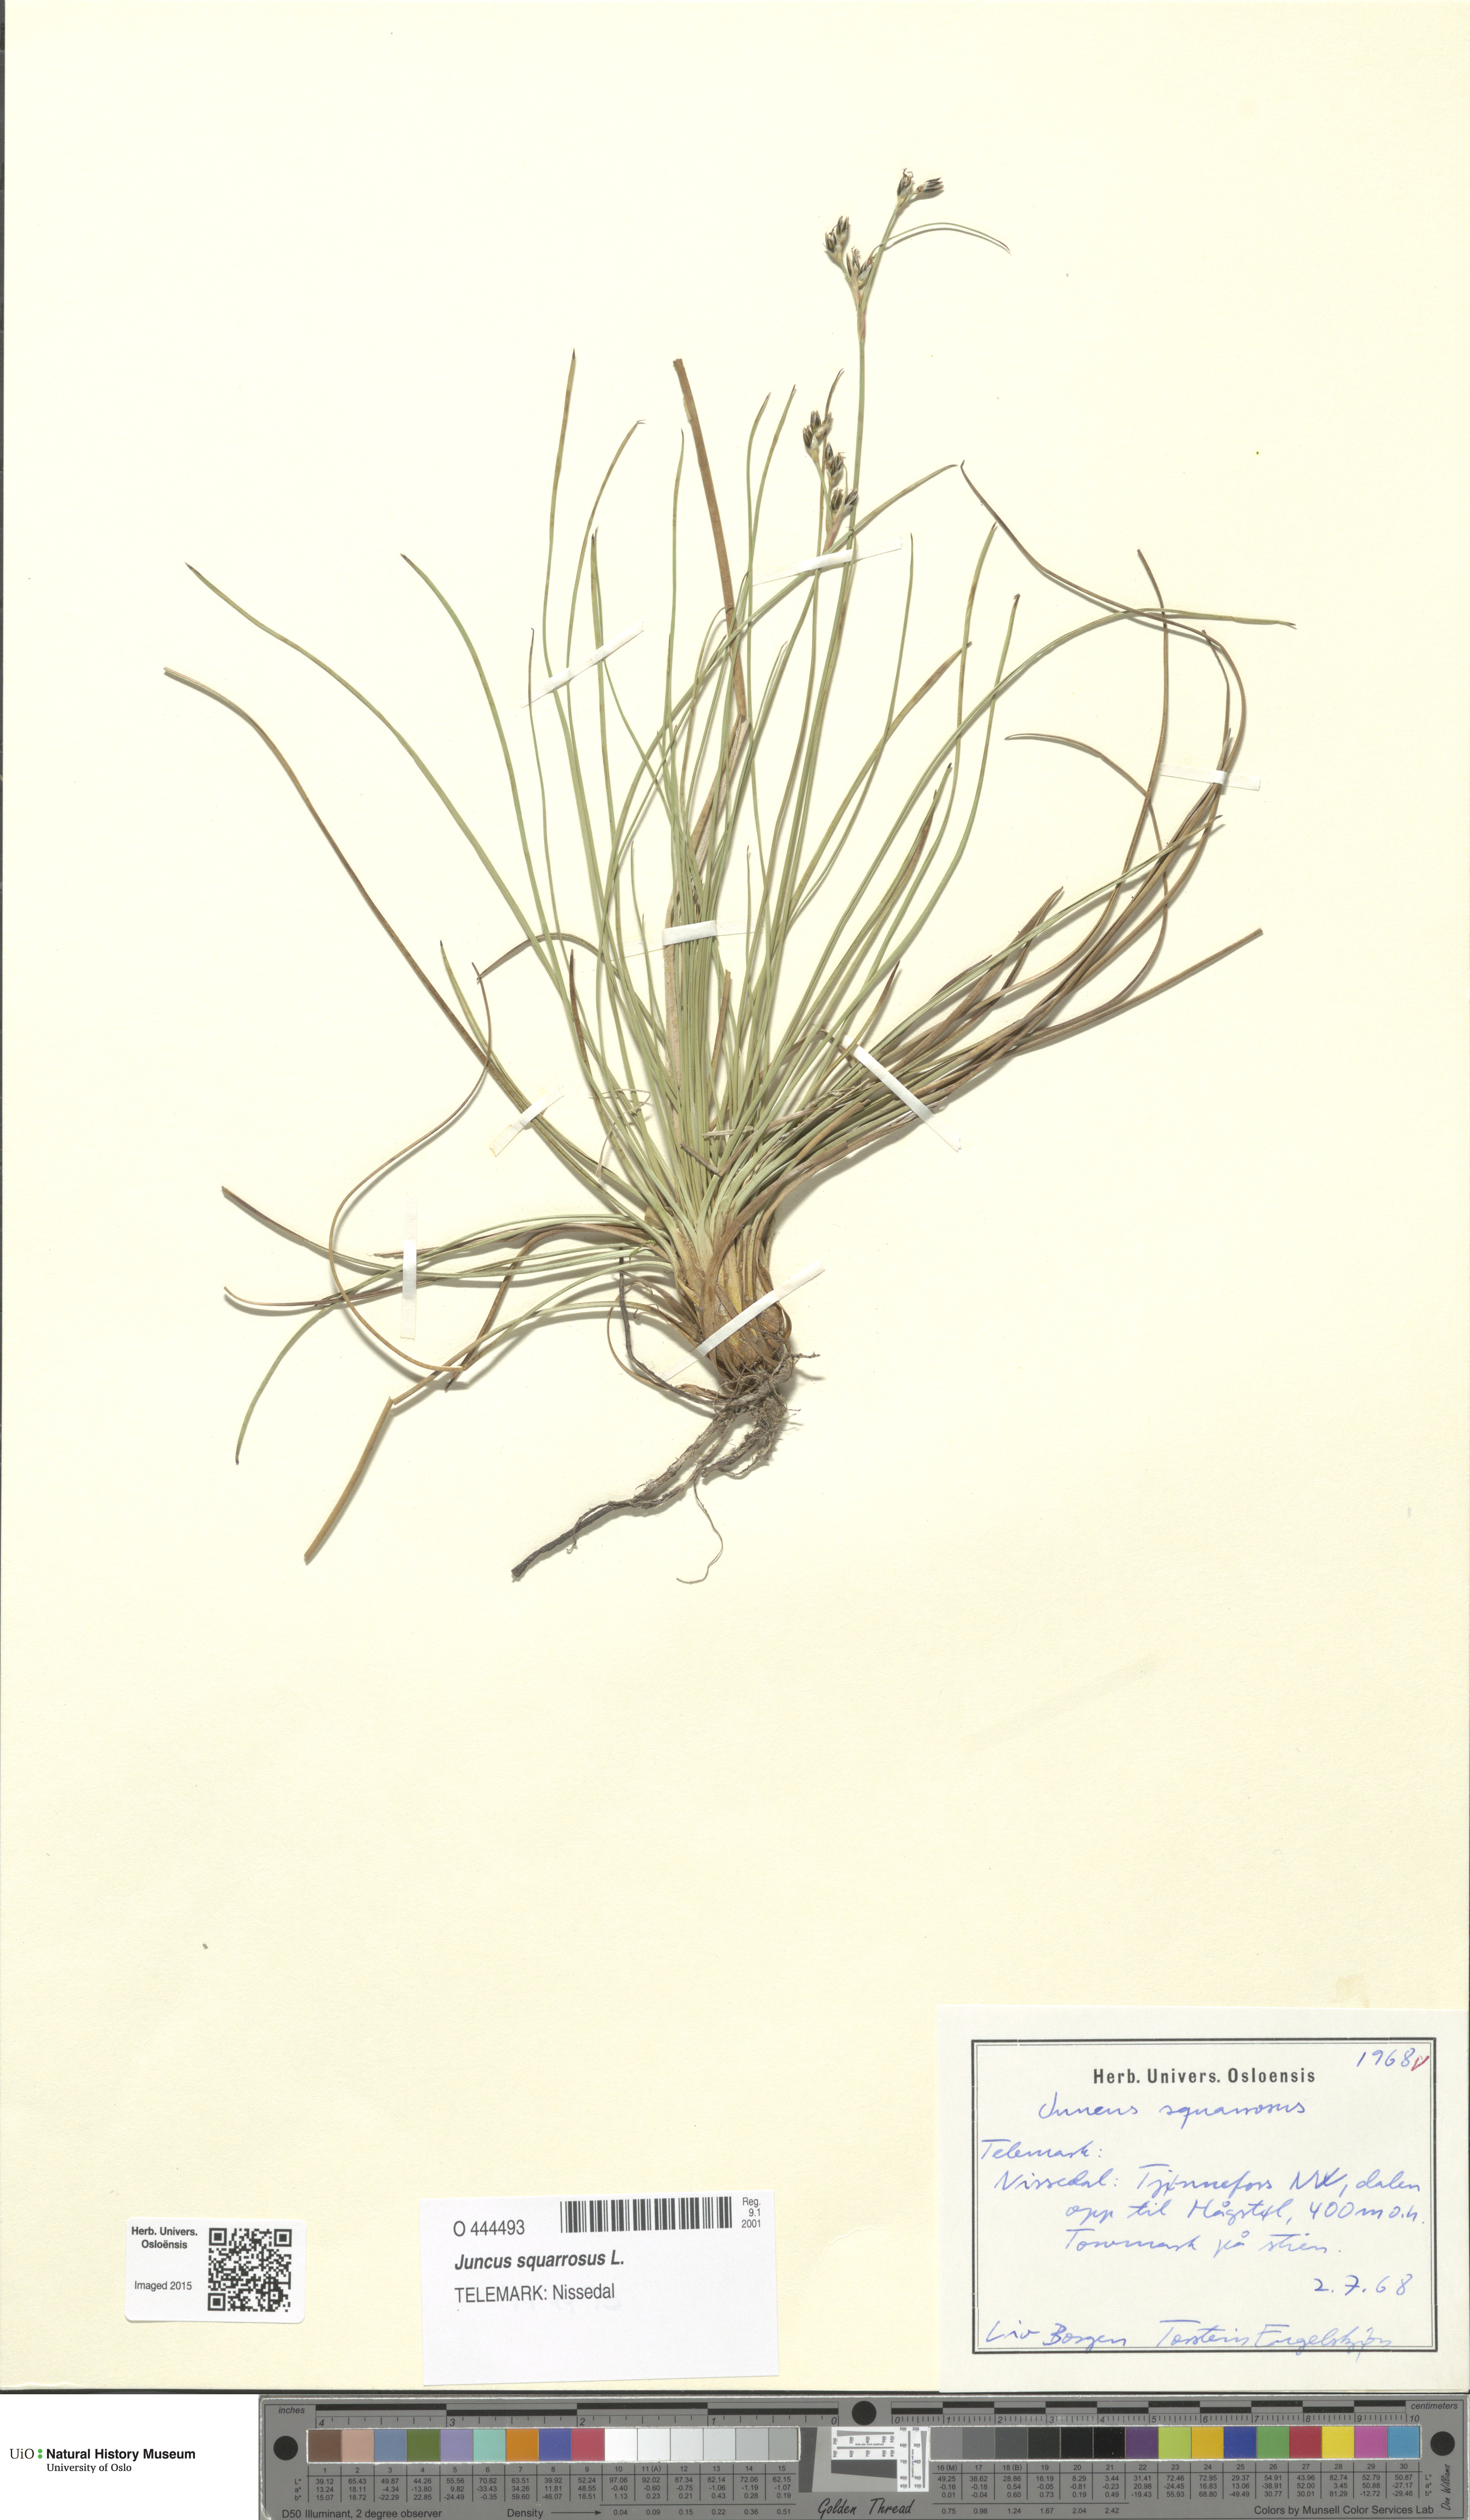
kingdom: Plantae
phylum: Tracheophyta
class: Liliopsida
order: Poales
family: Juncaceae
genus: Juncus
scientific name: Juncus squarrosus
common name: Heath rush
